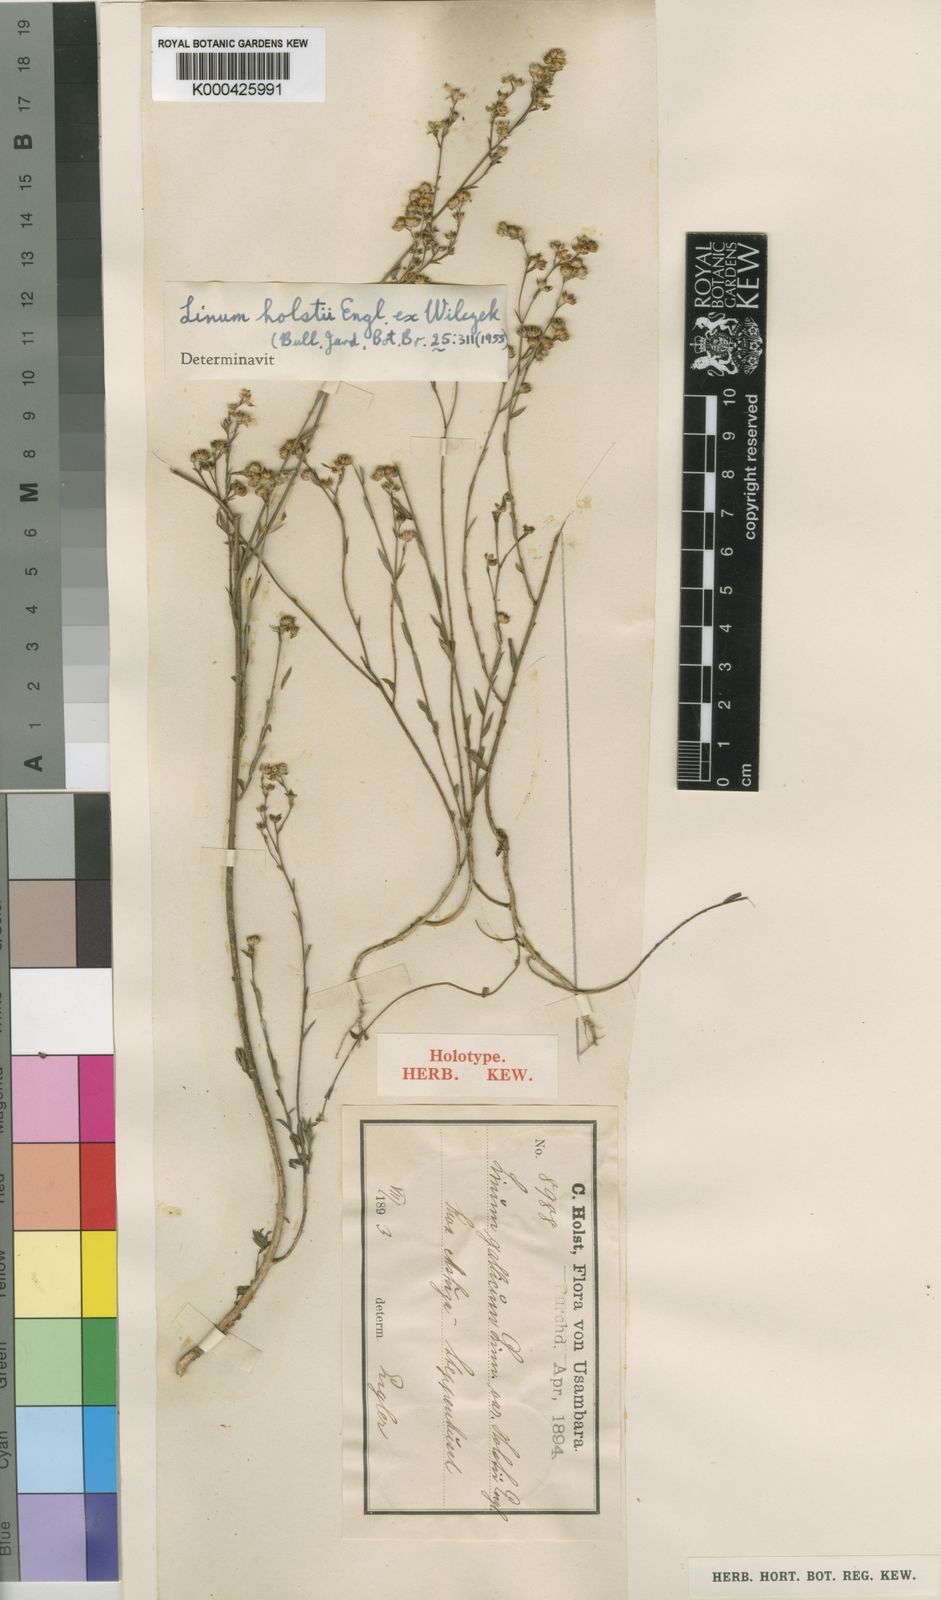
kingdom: Plantae
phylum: Tracheophyta
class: Magnoliopsida
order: Malpighiales
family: Linaceae
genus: Linum
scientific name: Linum volkensii
